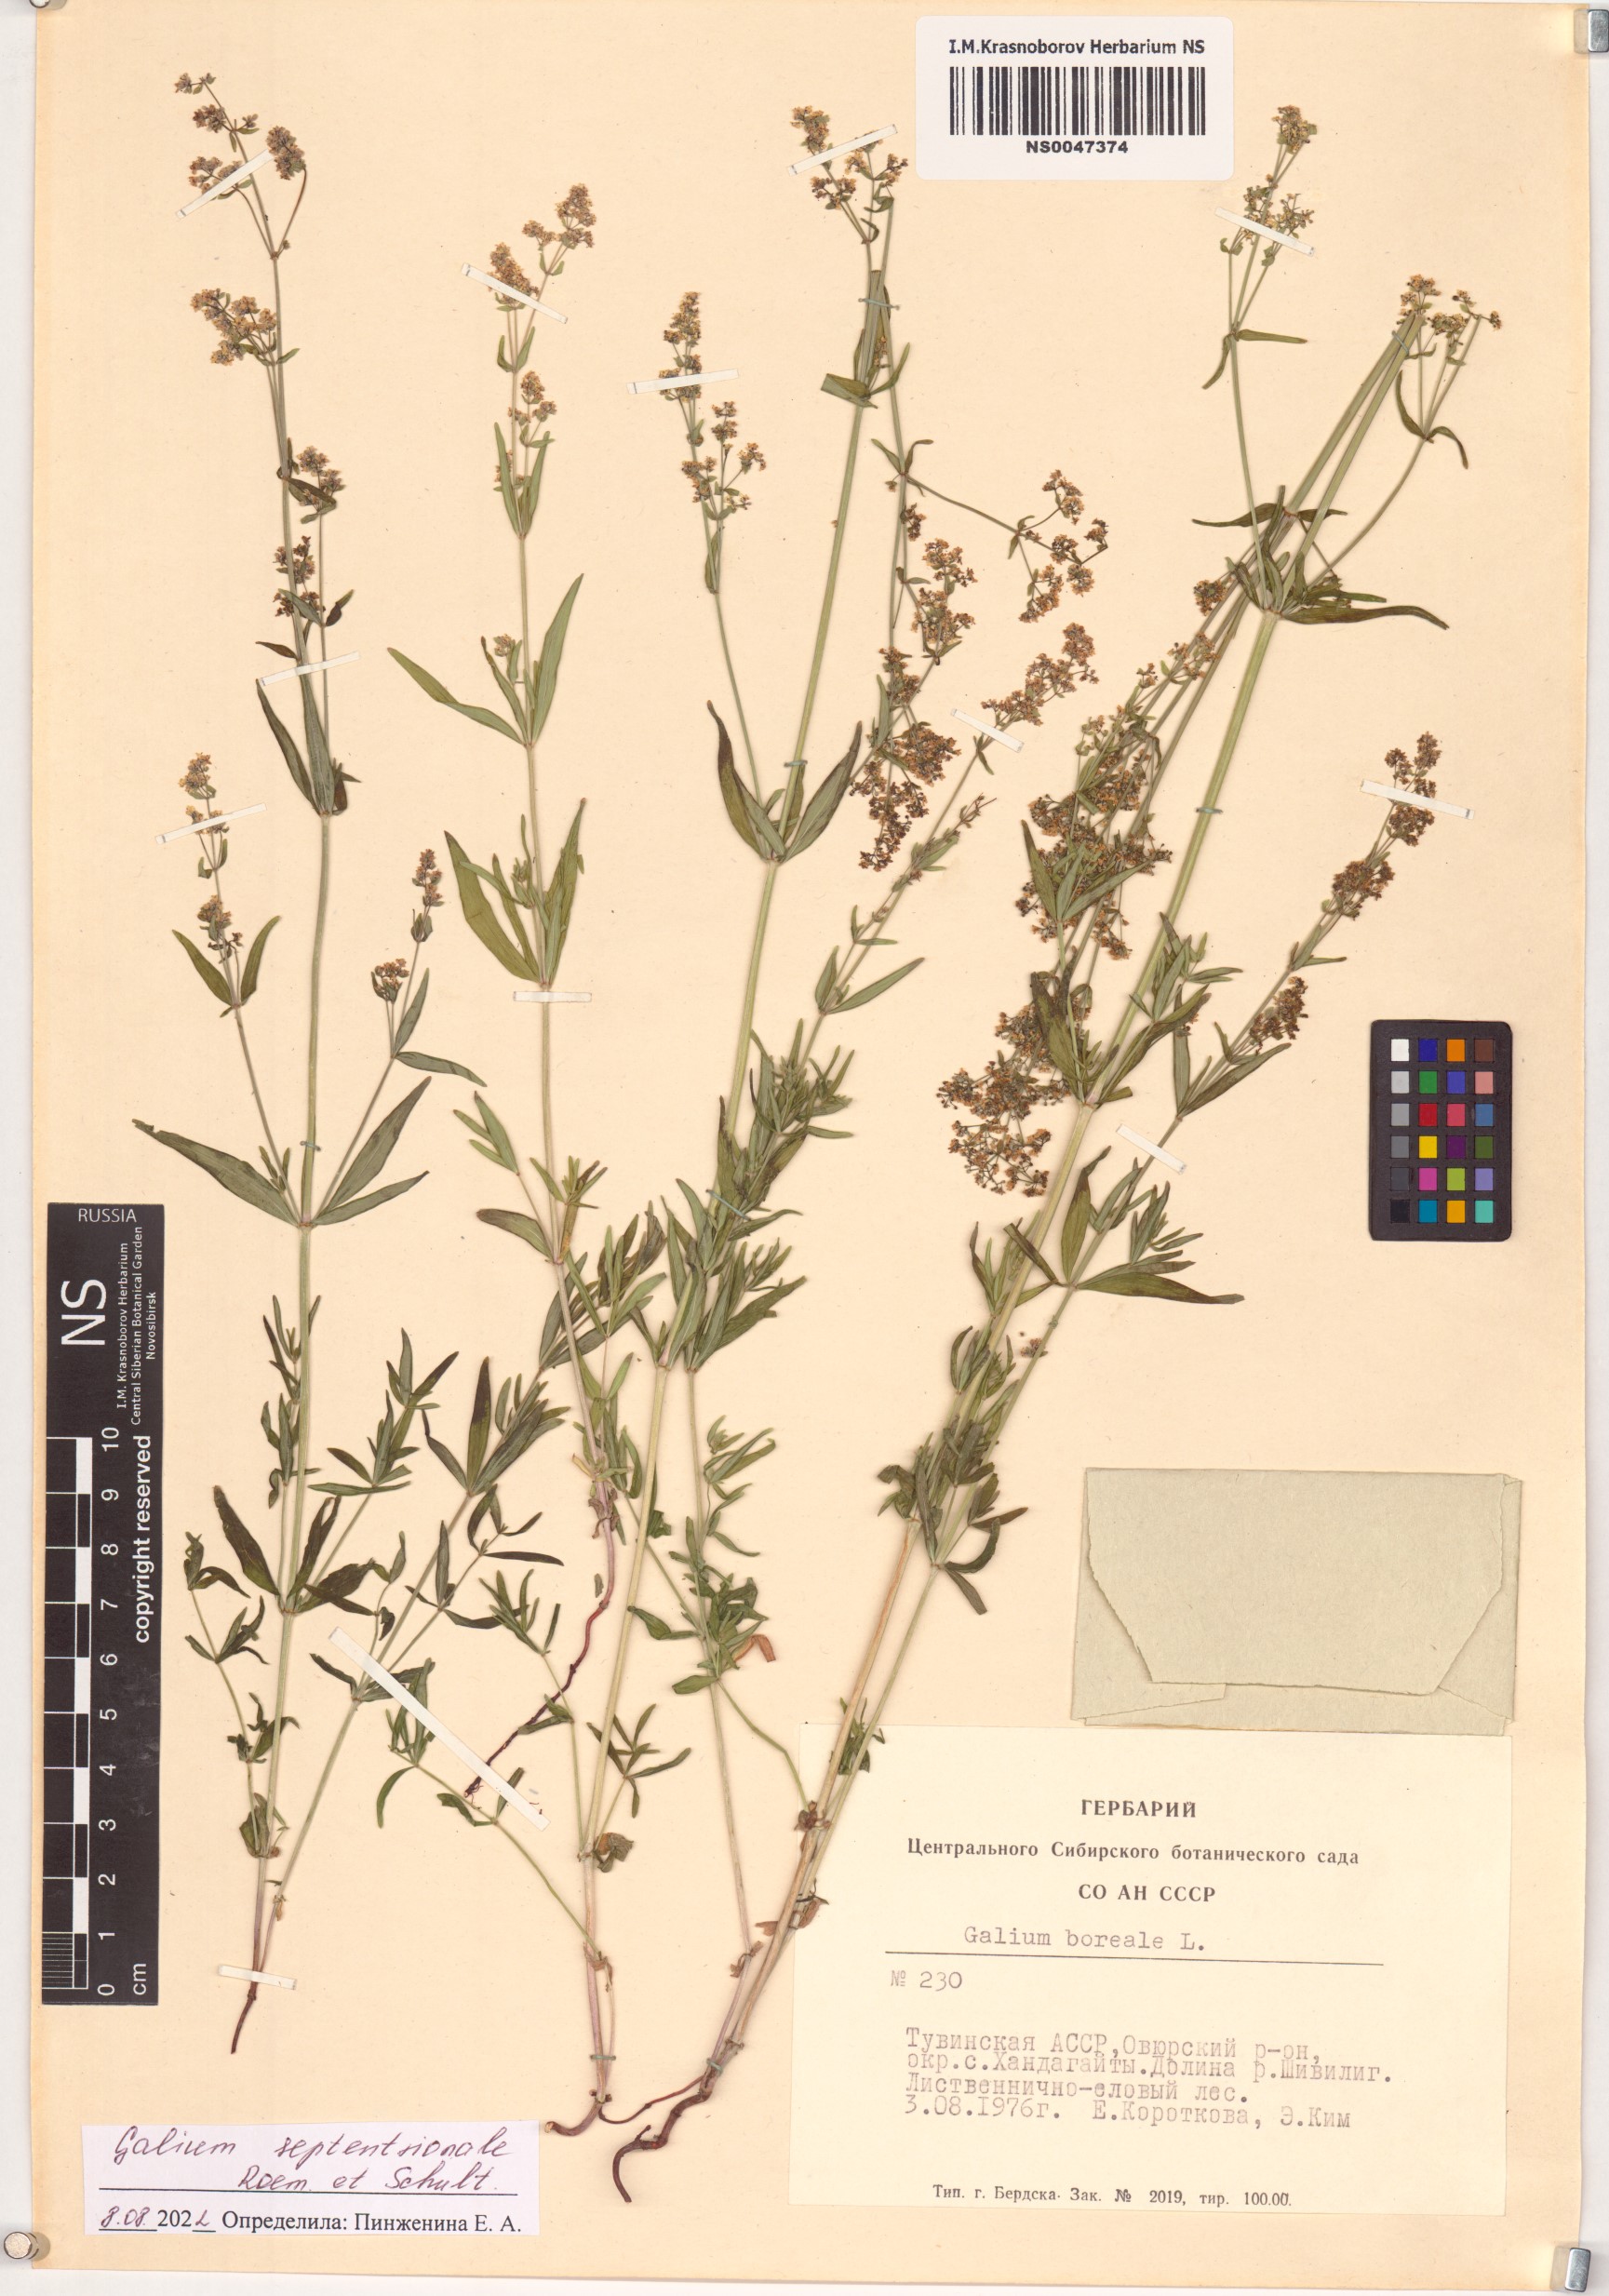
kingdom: Plantae
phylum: Tracheophyta
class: Magnoliopsida
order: Gentianales
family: Rubiaceae
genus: Galium
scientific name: Galium boreale
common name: Northern bedstraw
